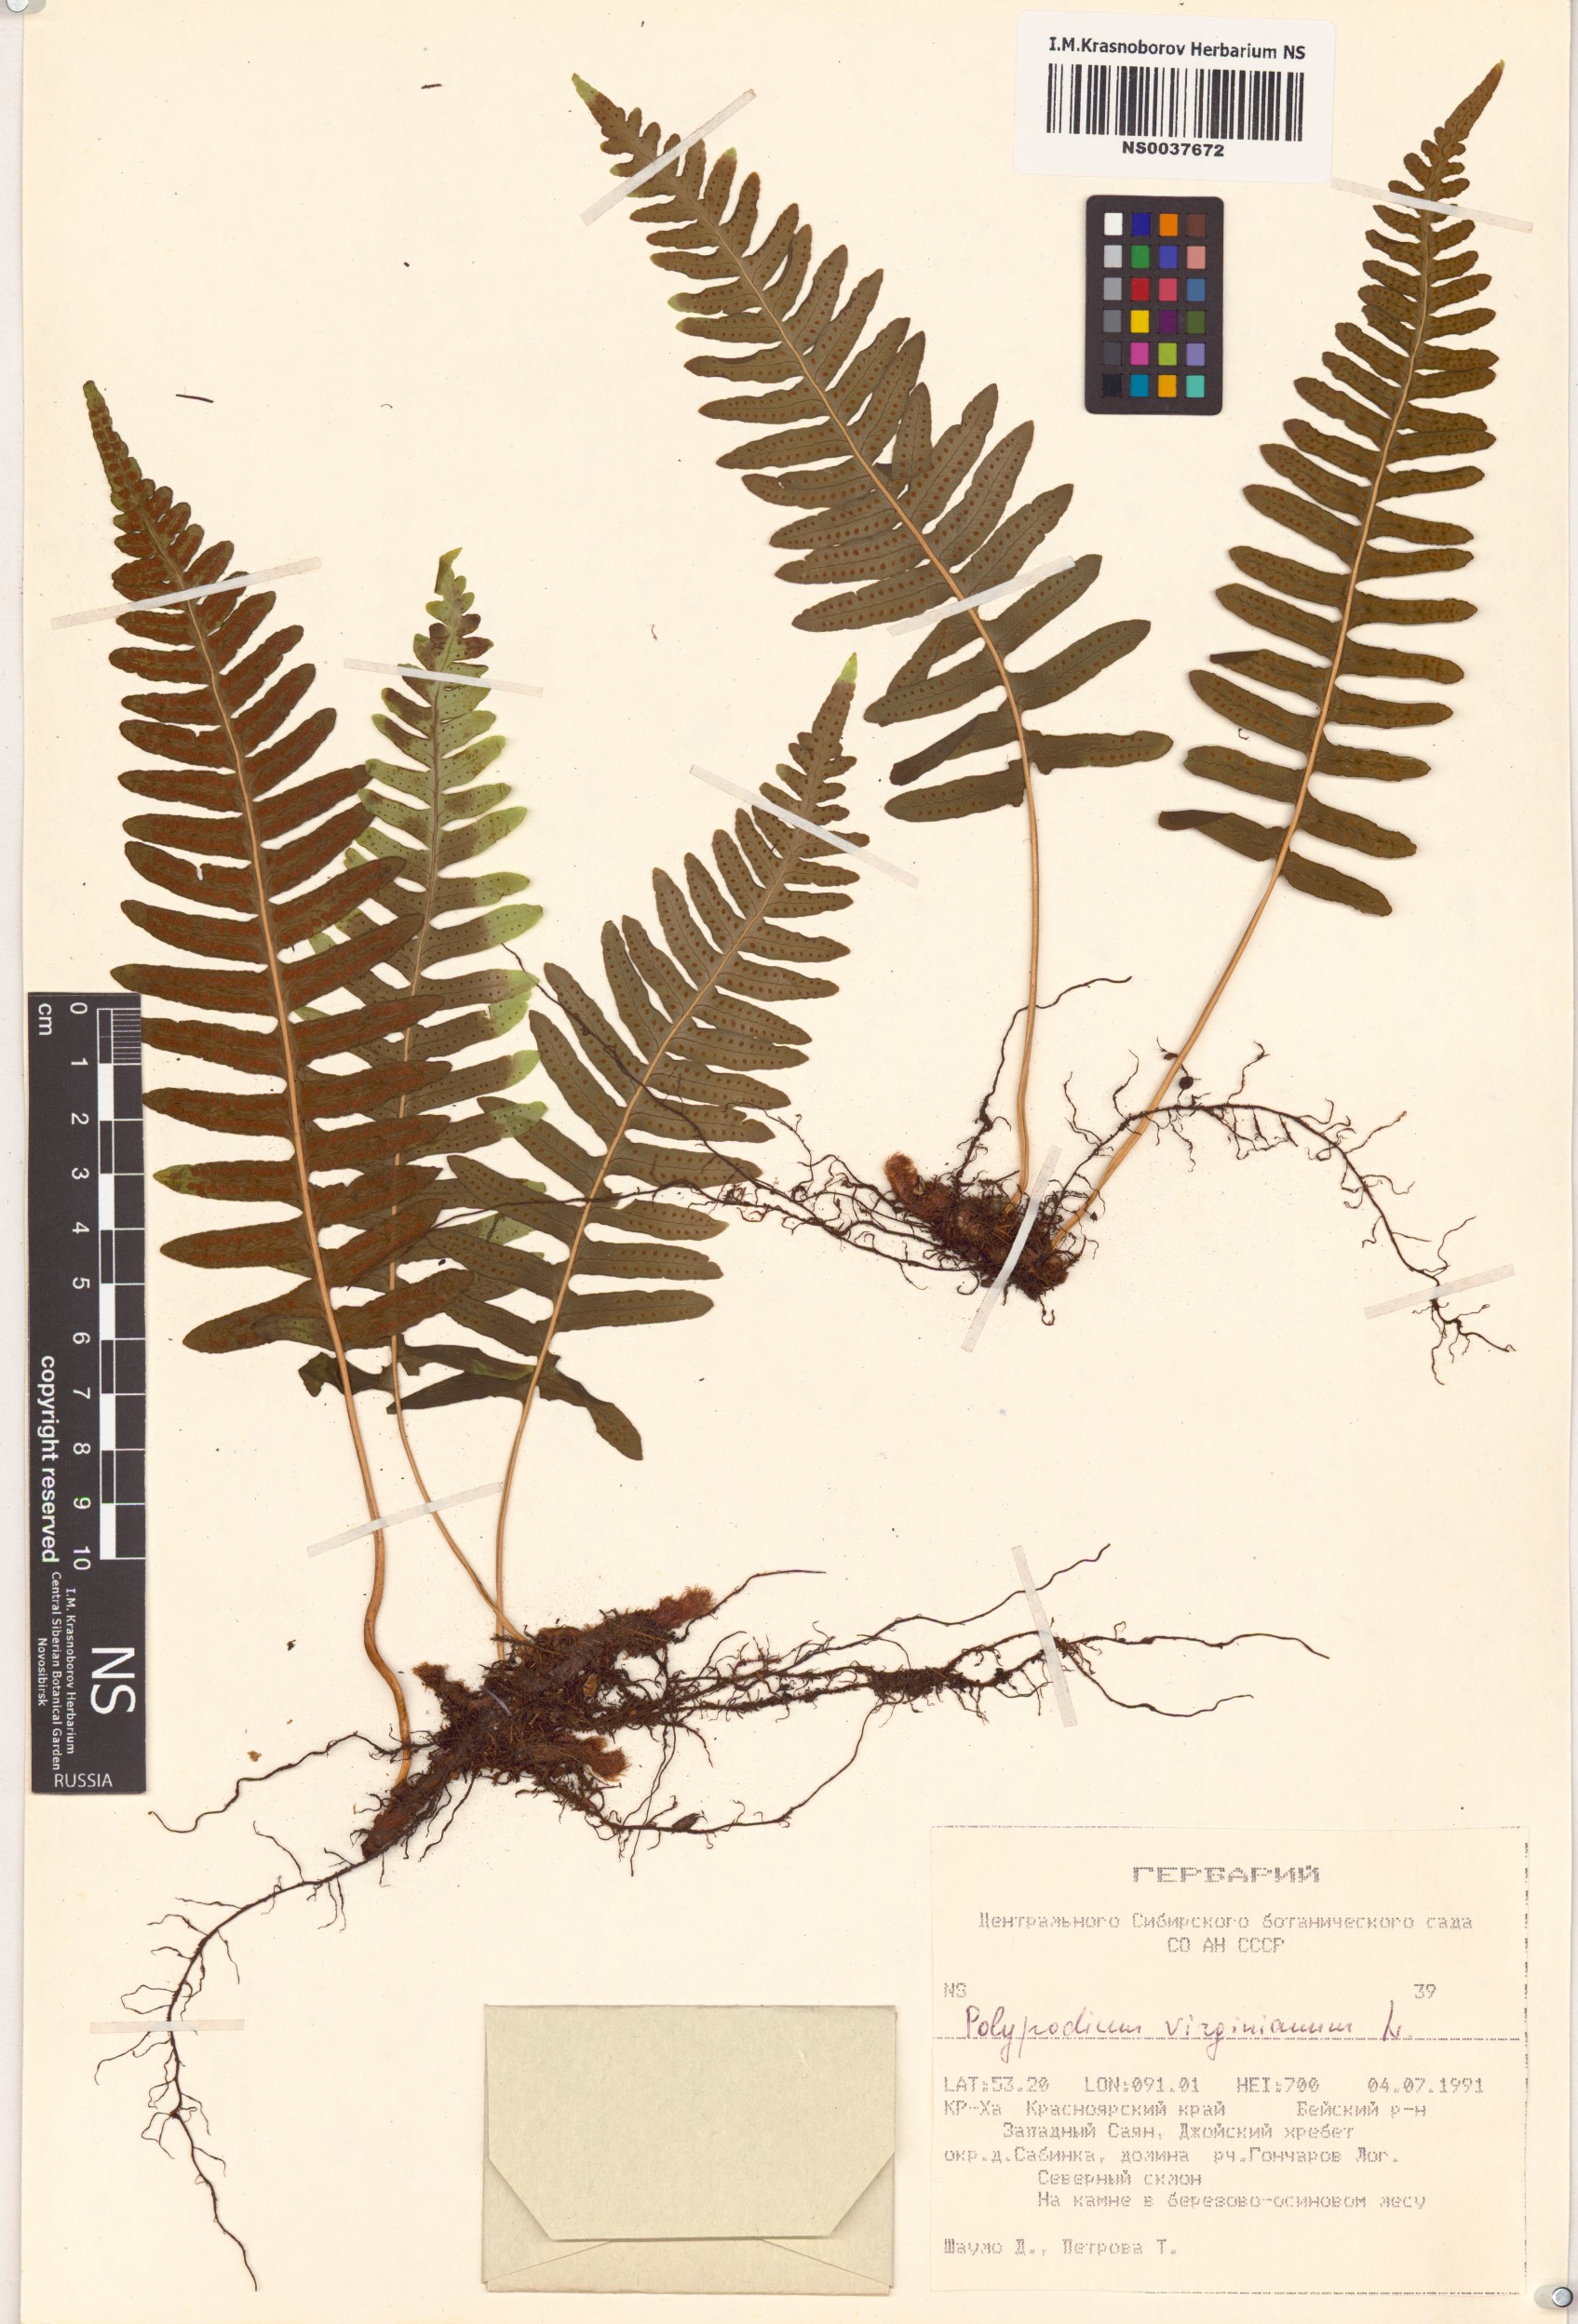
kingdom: Plantae
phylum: Tracheophyta
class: Polypodiopsida
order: Polypodiales
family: Polypodiaceae
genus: Polypodium
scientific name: Polypodium virginianum
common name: American wall fern
